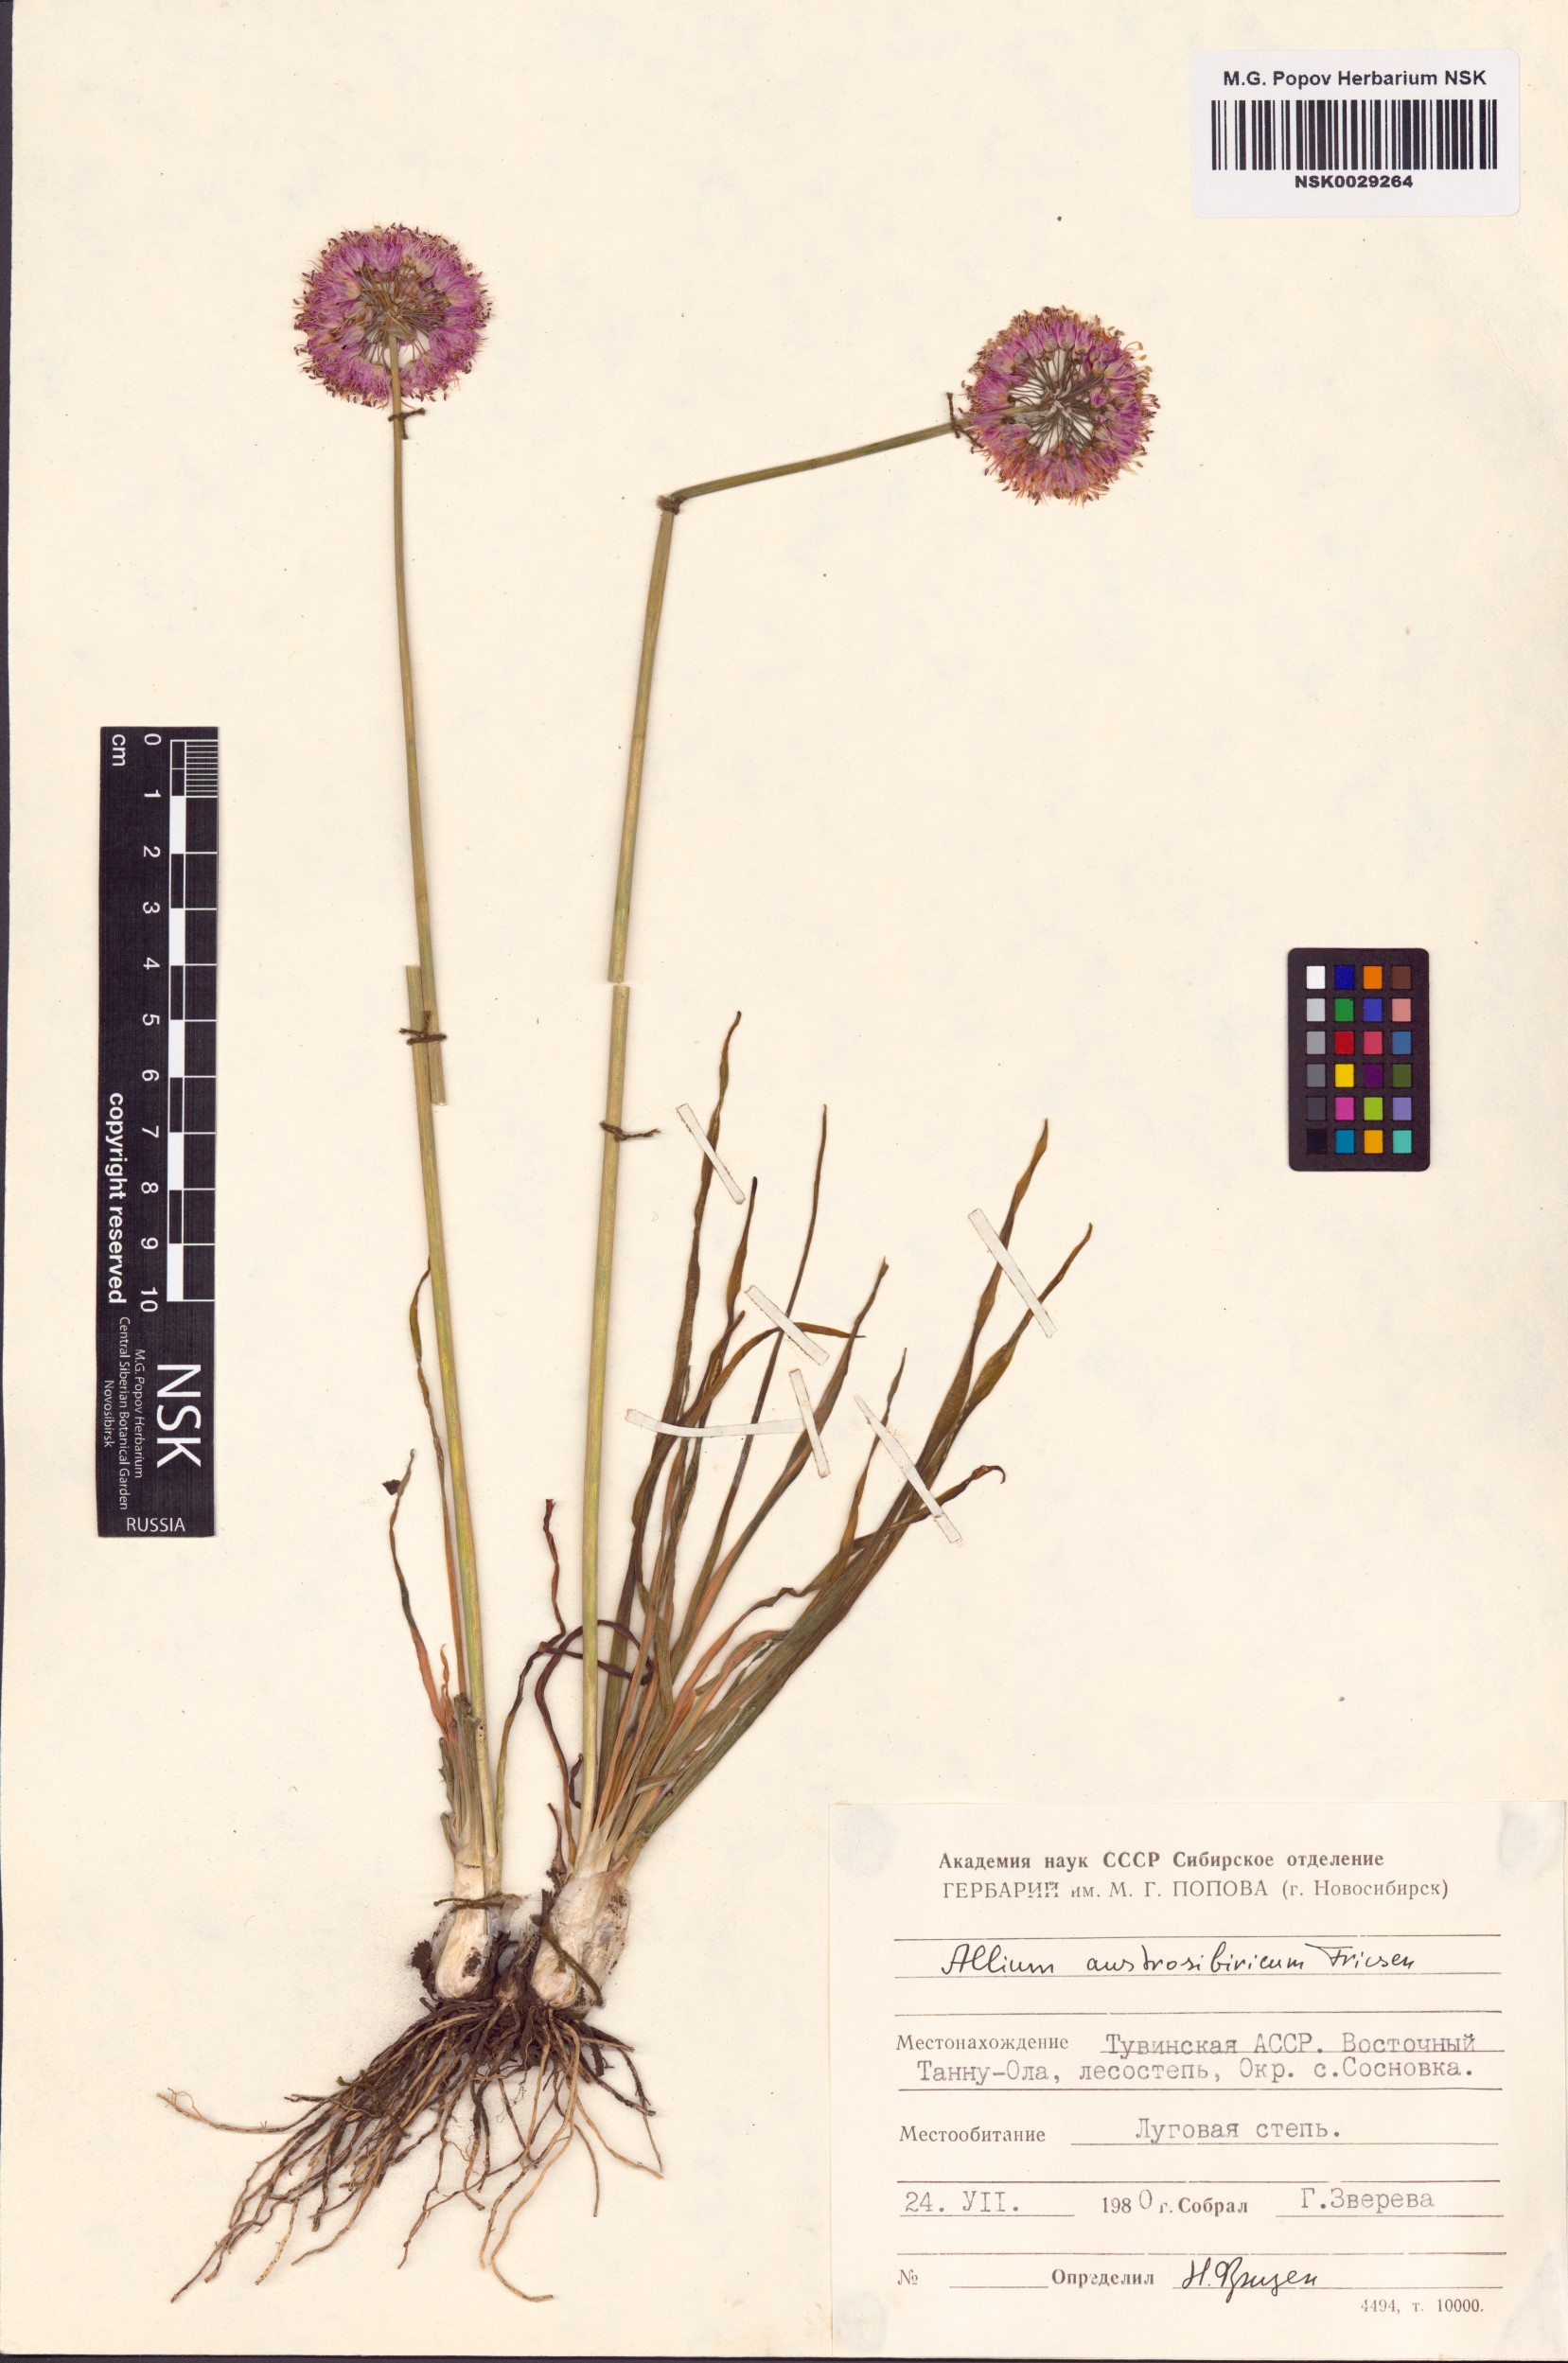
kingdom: Plantae
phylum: Tracheophyta
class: Liliopsida
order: Asparagales
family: Amaryllidaceae
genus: Allium
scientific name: Allium austrosibiricum
